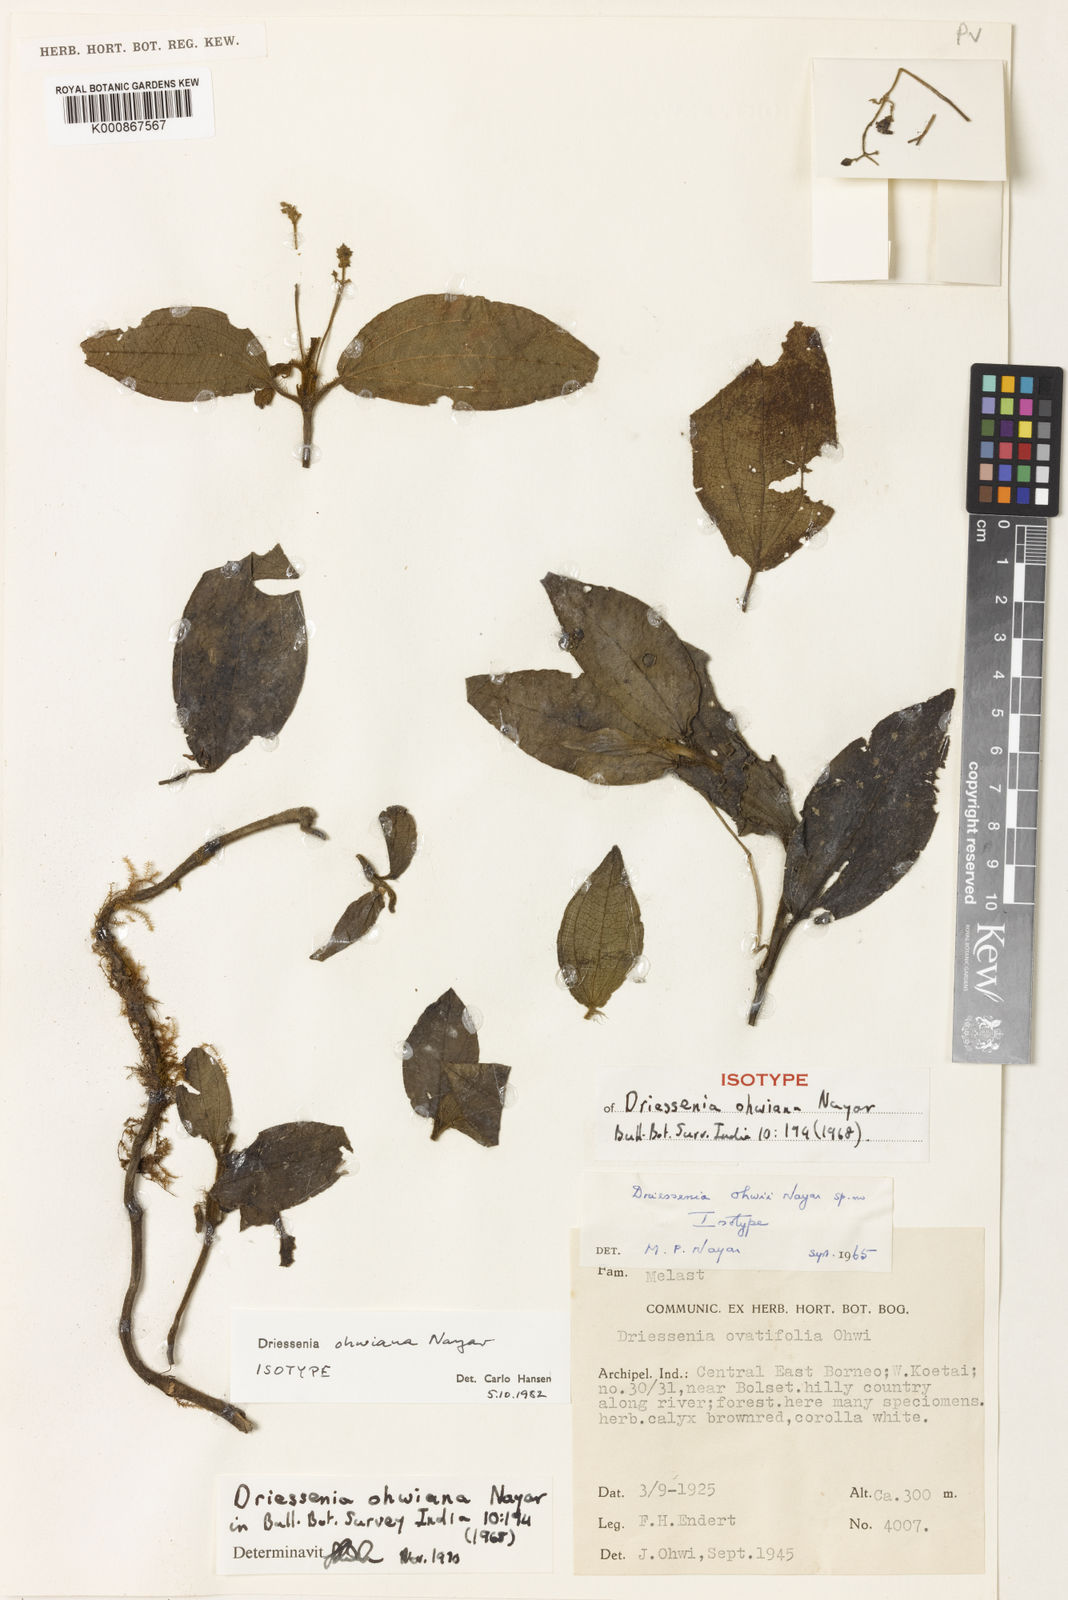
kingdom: Plantae
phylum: Tracheophyta
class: Magnoliopsida
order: Myrtales
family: Melastomataceae
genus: Driessenia
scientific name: Driessenia ohwiana
